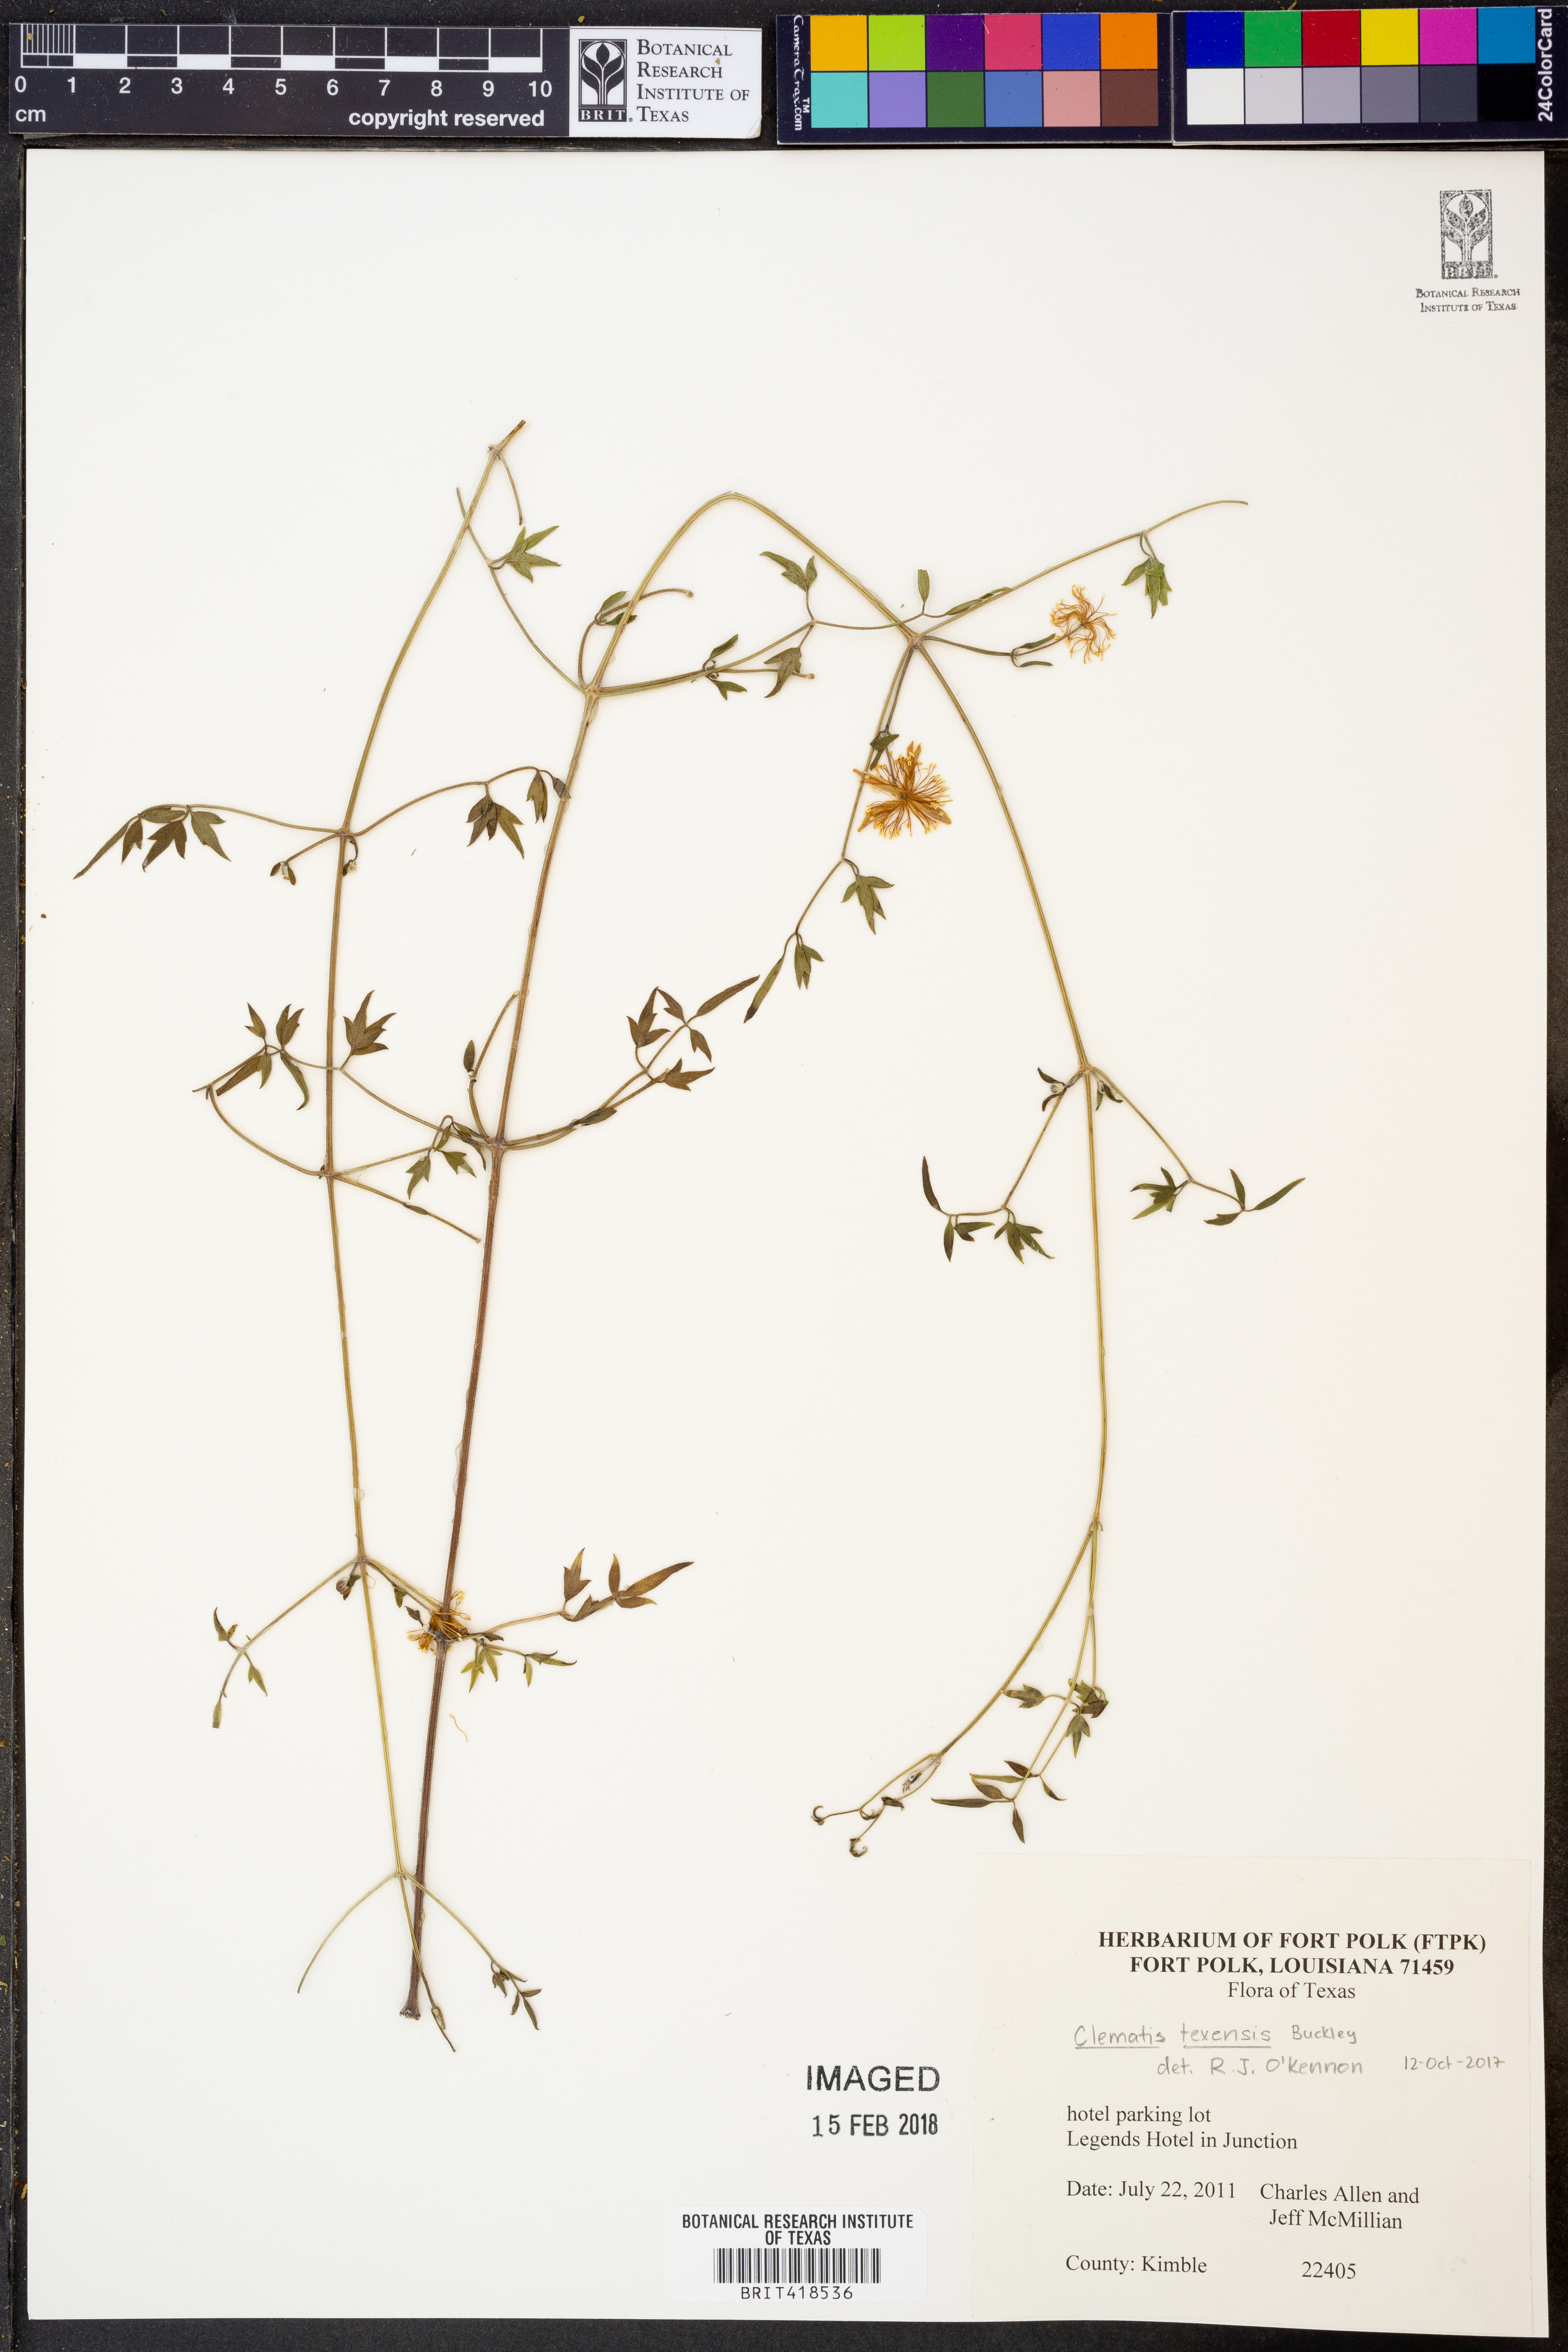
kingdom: Plantae
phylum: Tracheophyta
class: Magnoliopsida
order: Ranunculales
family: Ranunculaceae
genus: Clematis
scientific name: Clematis texensis
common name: Crimson clematis
